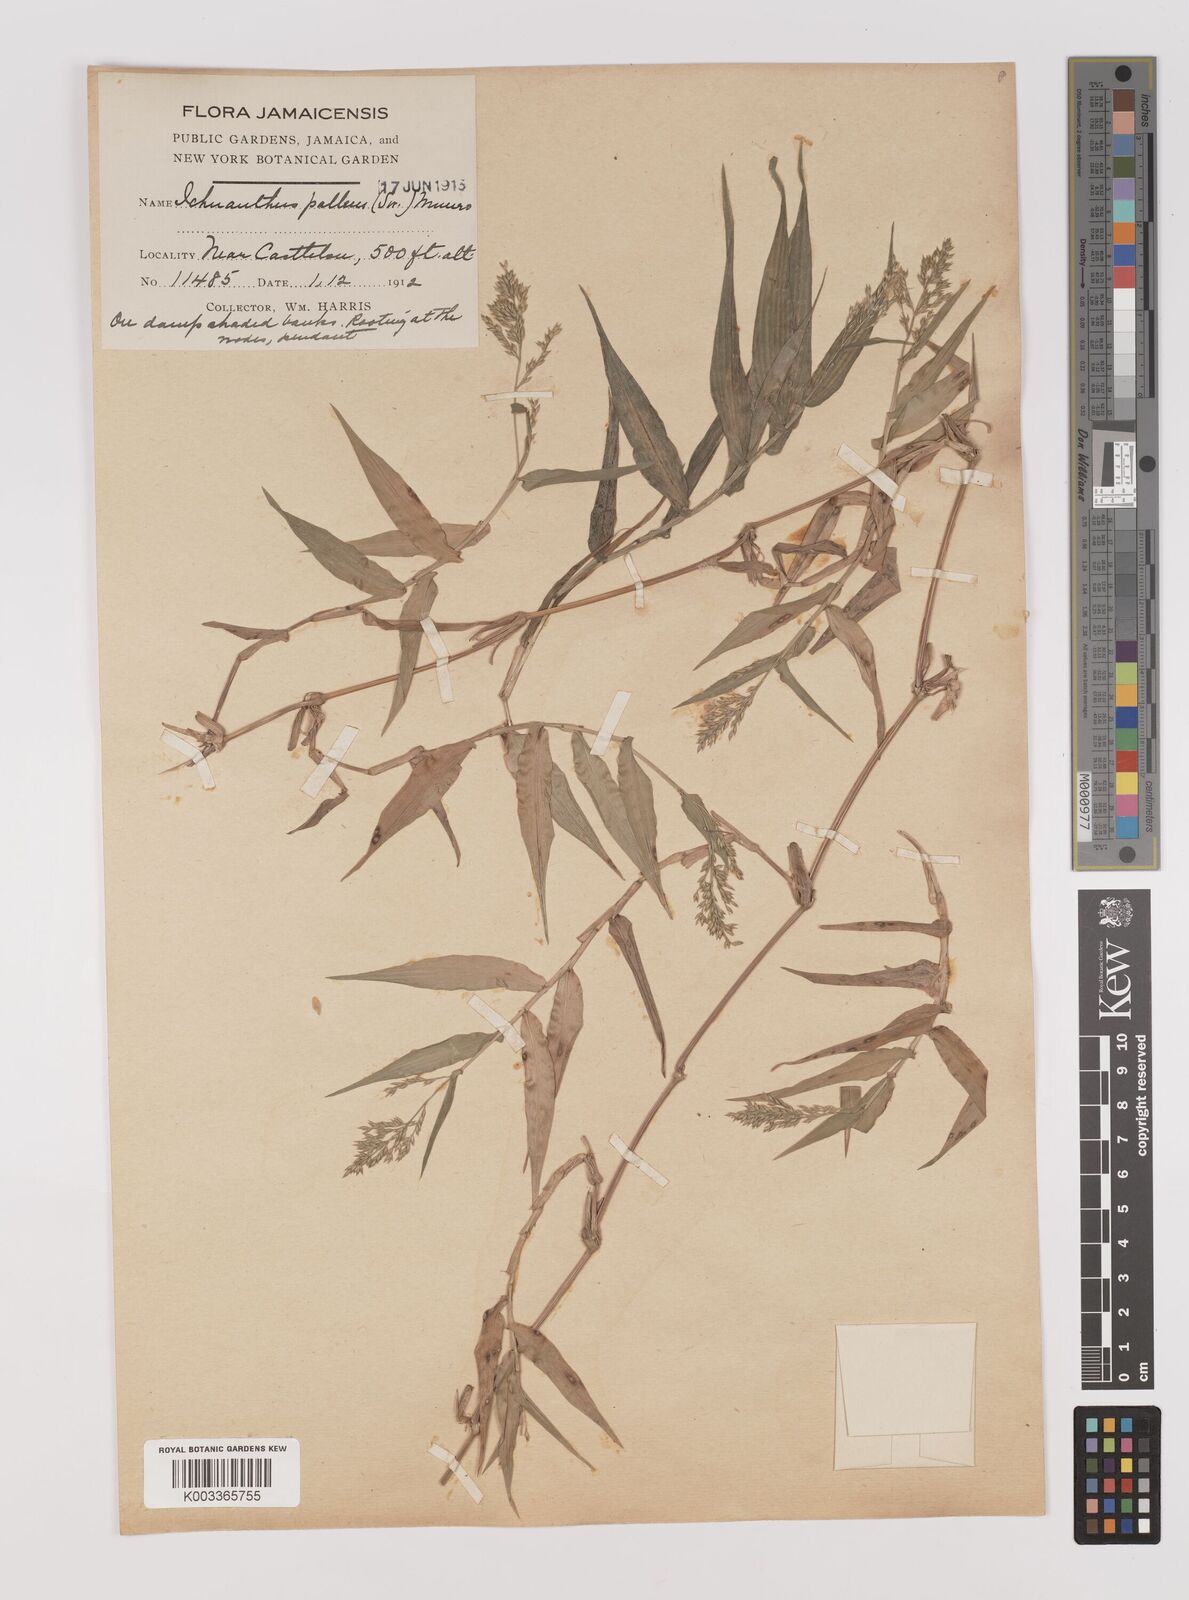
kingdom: Plantae
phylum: Tracheophyta
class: Liliopsida
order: Poales
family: Poaceae
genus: Ichnanthus
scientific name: Ichnanthus pallens
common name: Water grass
